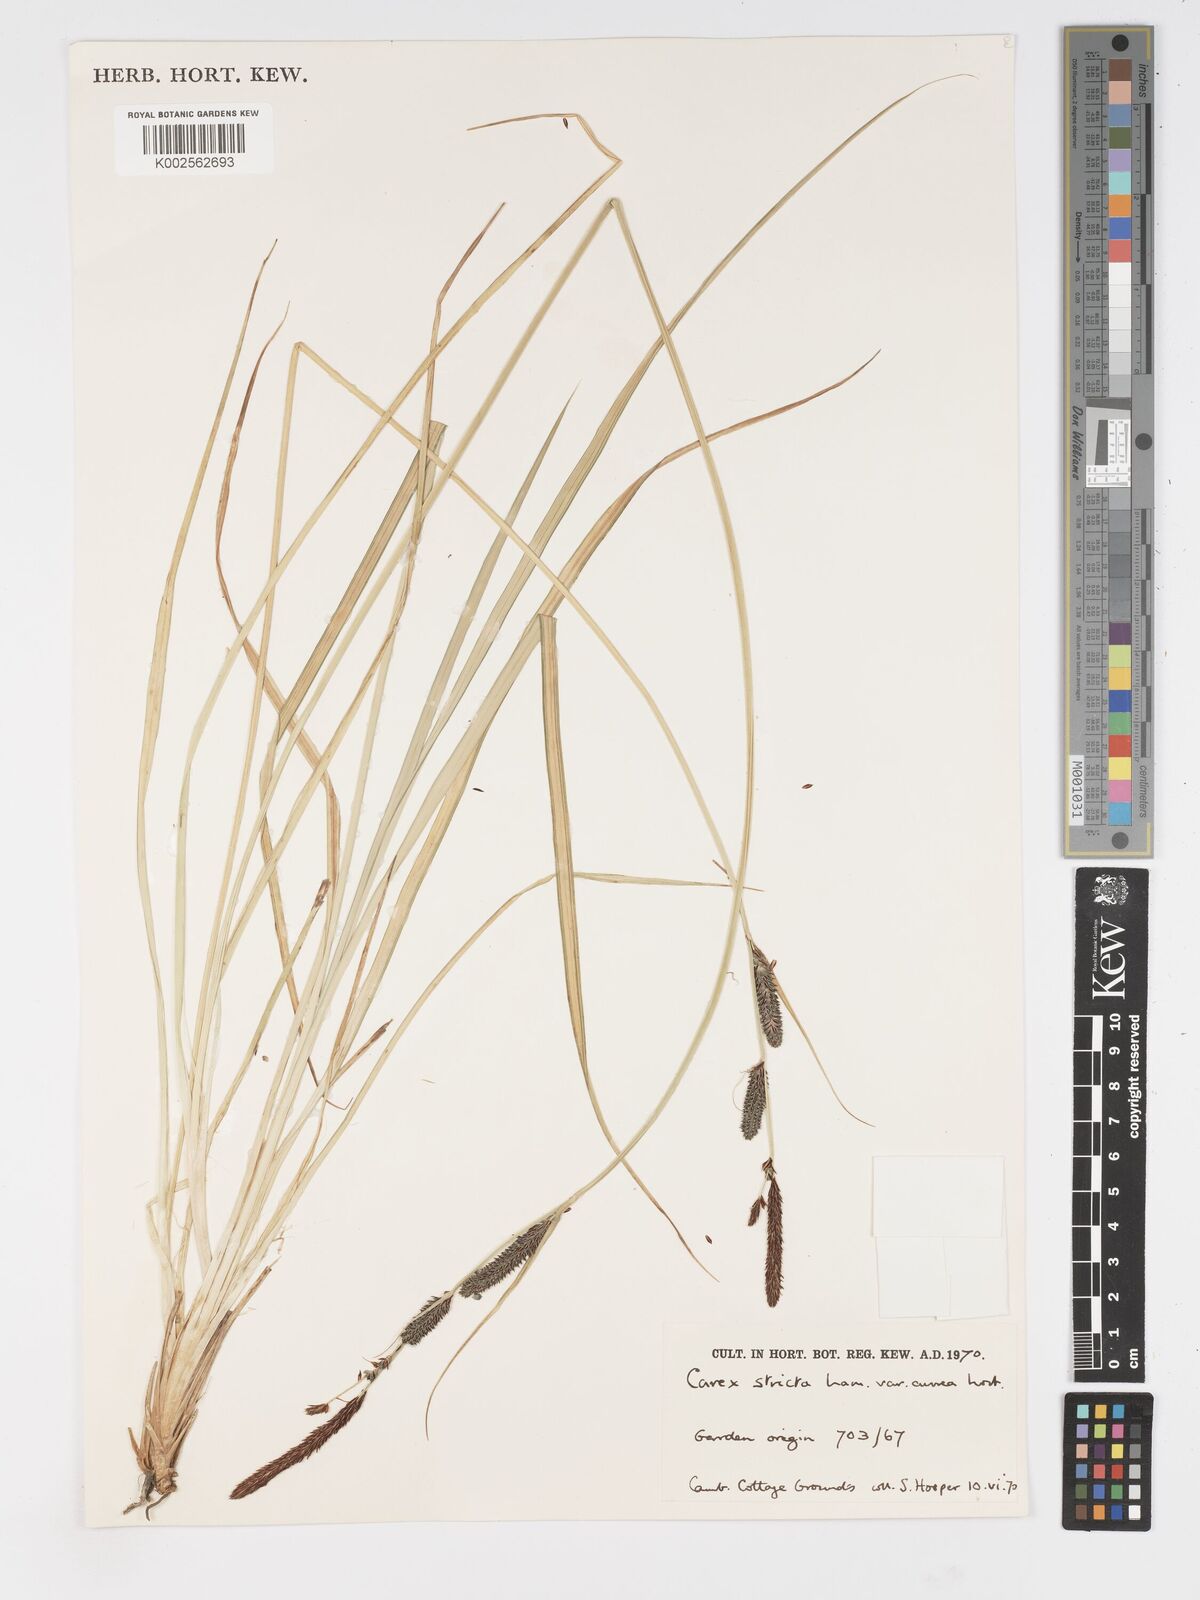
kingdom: Plantae
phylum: Tracheophyta
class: Liliopsida
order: Poales
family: Cyperaceae
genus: Carex
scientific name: Carex stricta
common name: Hummock sedge
